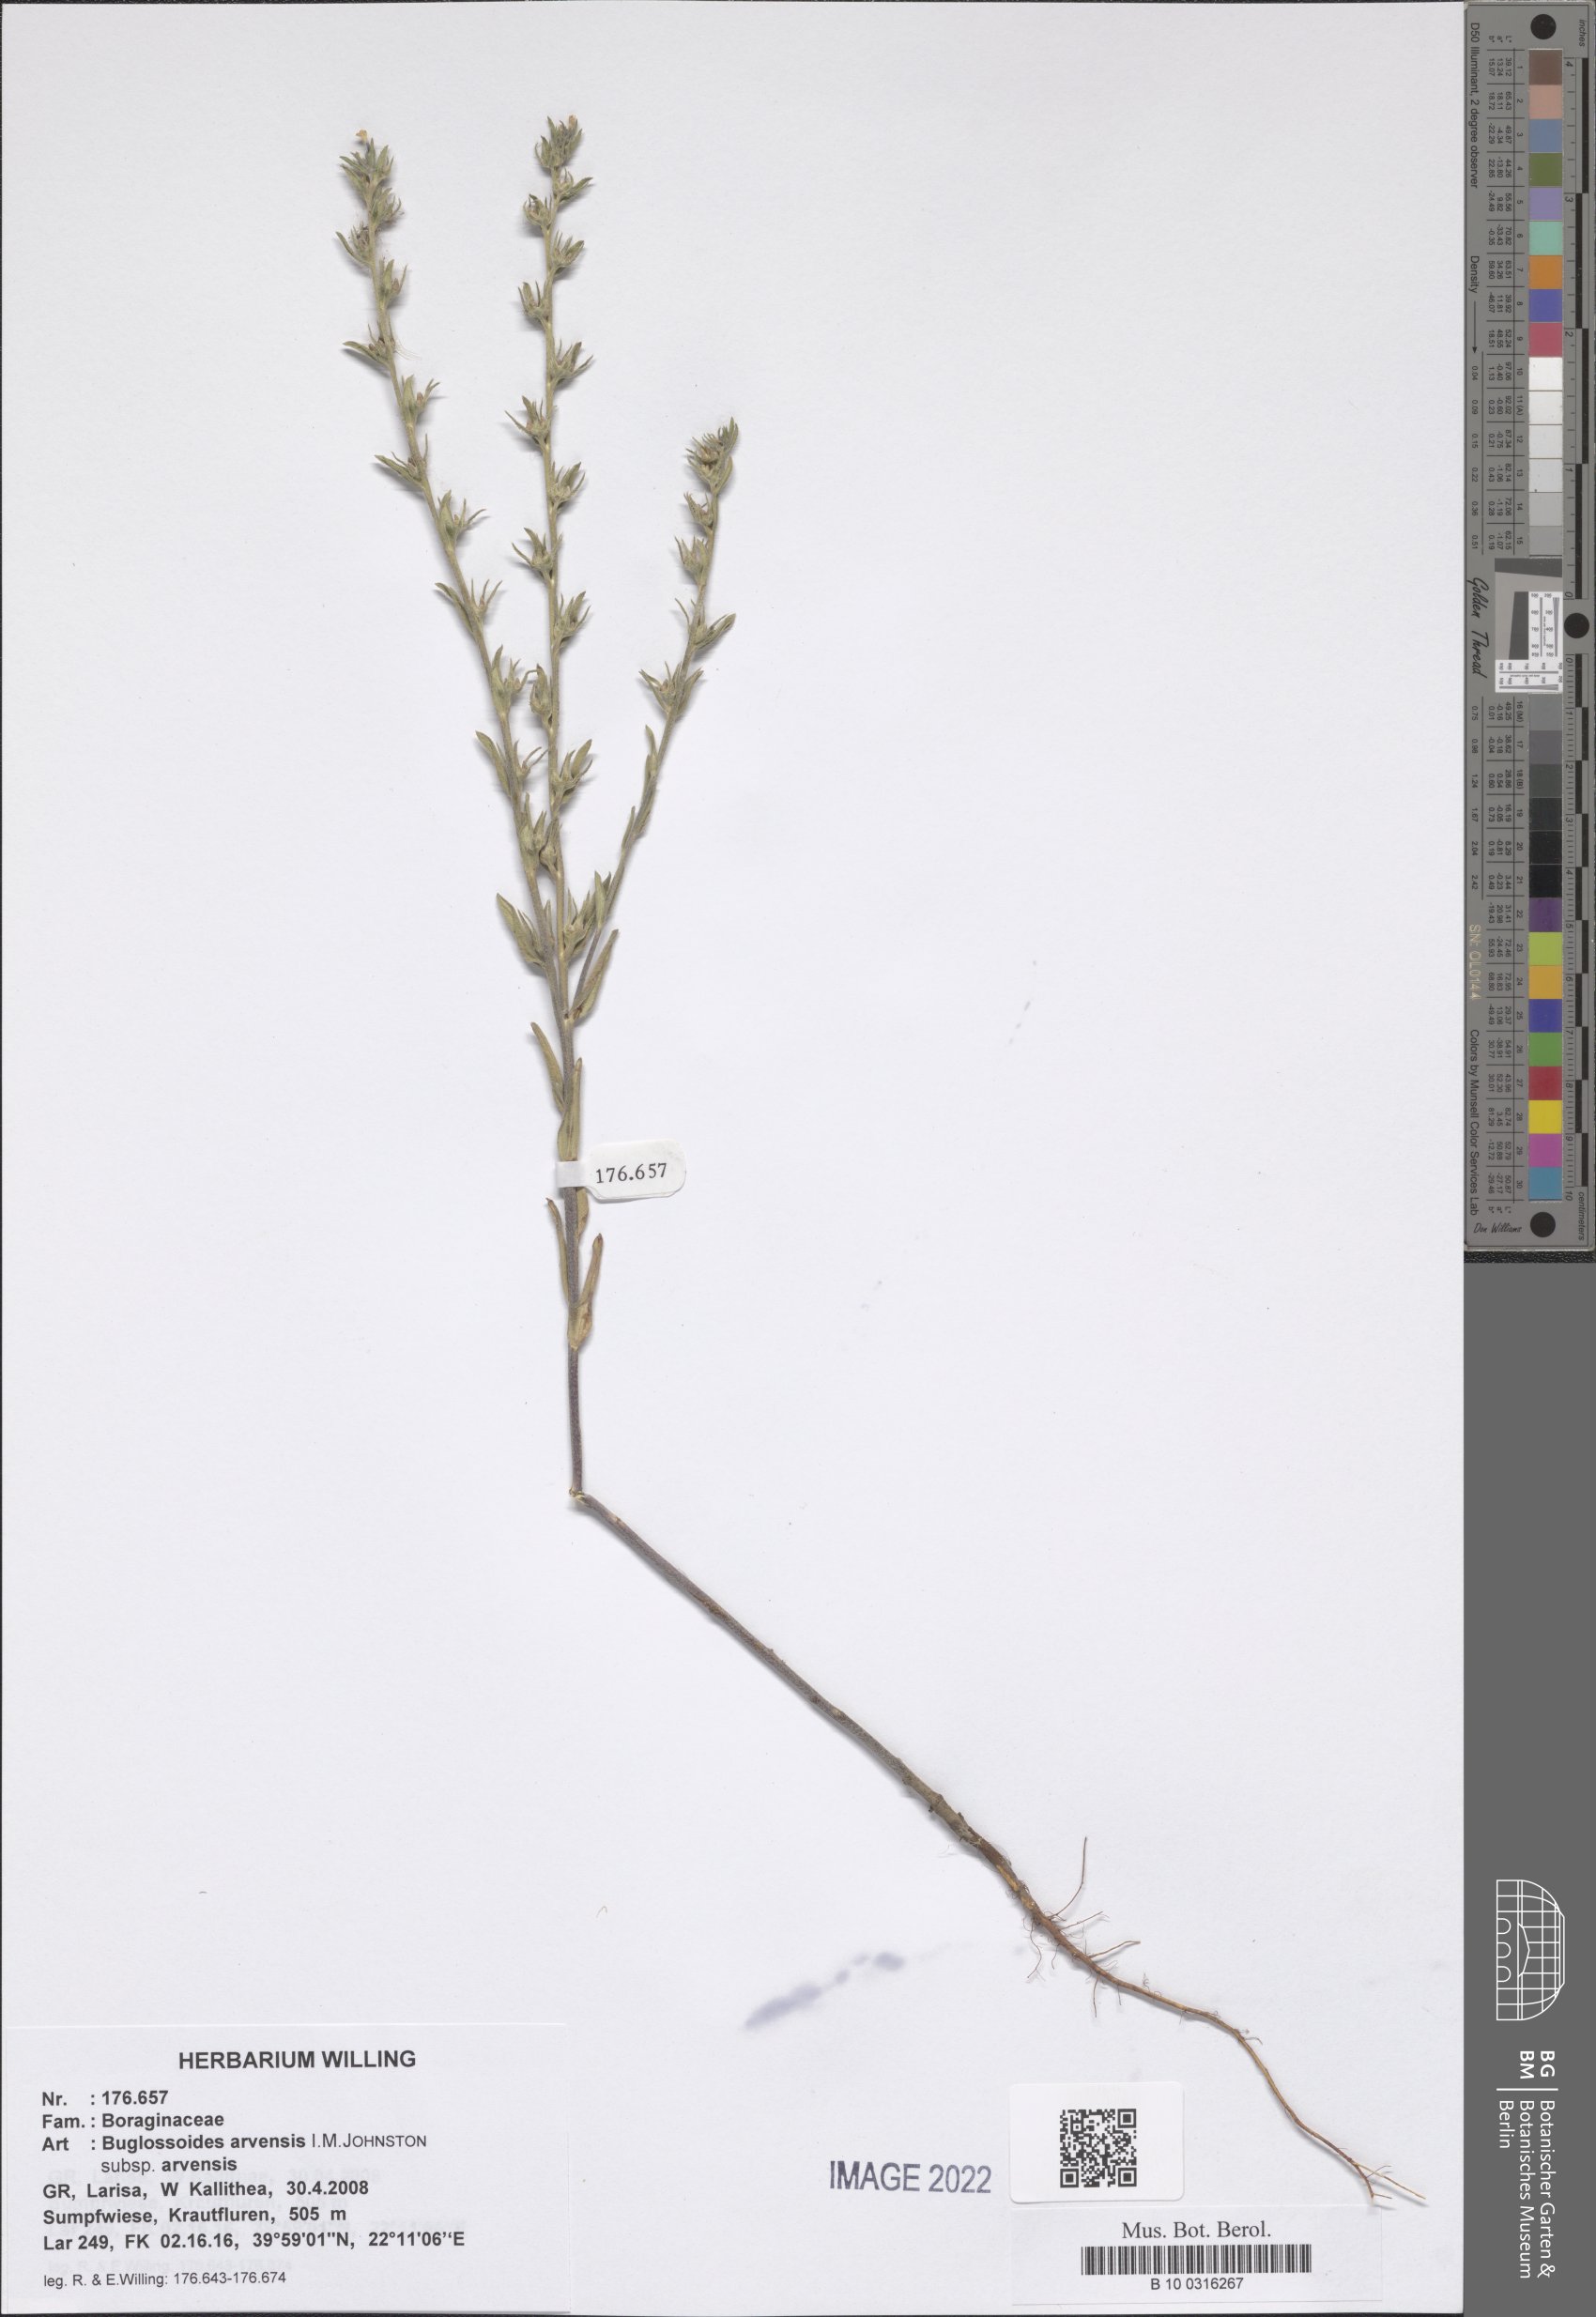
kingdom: Plantae
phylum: Tracheophyta
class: Magnoliopsida
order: Boraginales
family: Boraginaceae
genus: Buglossoides
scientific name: Buglossoides arvensis
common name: Corn gromwell
